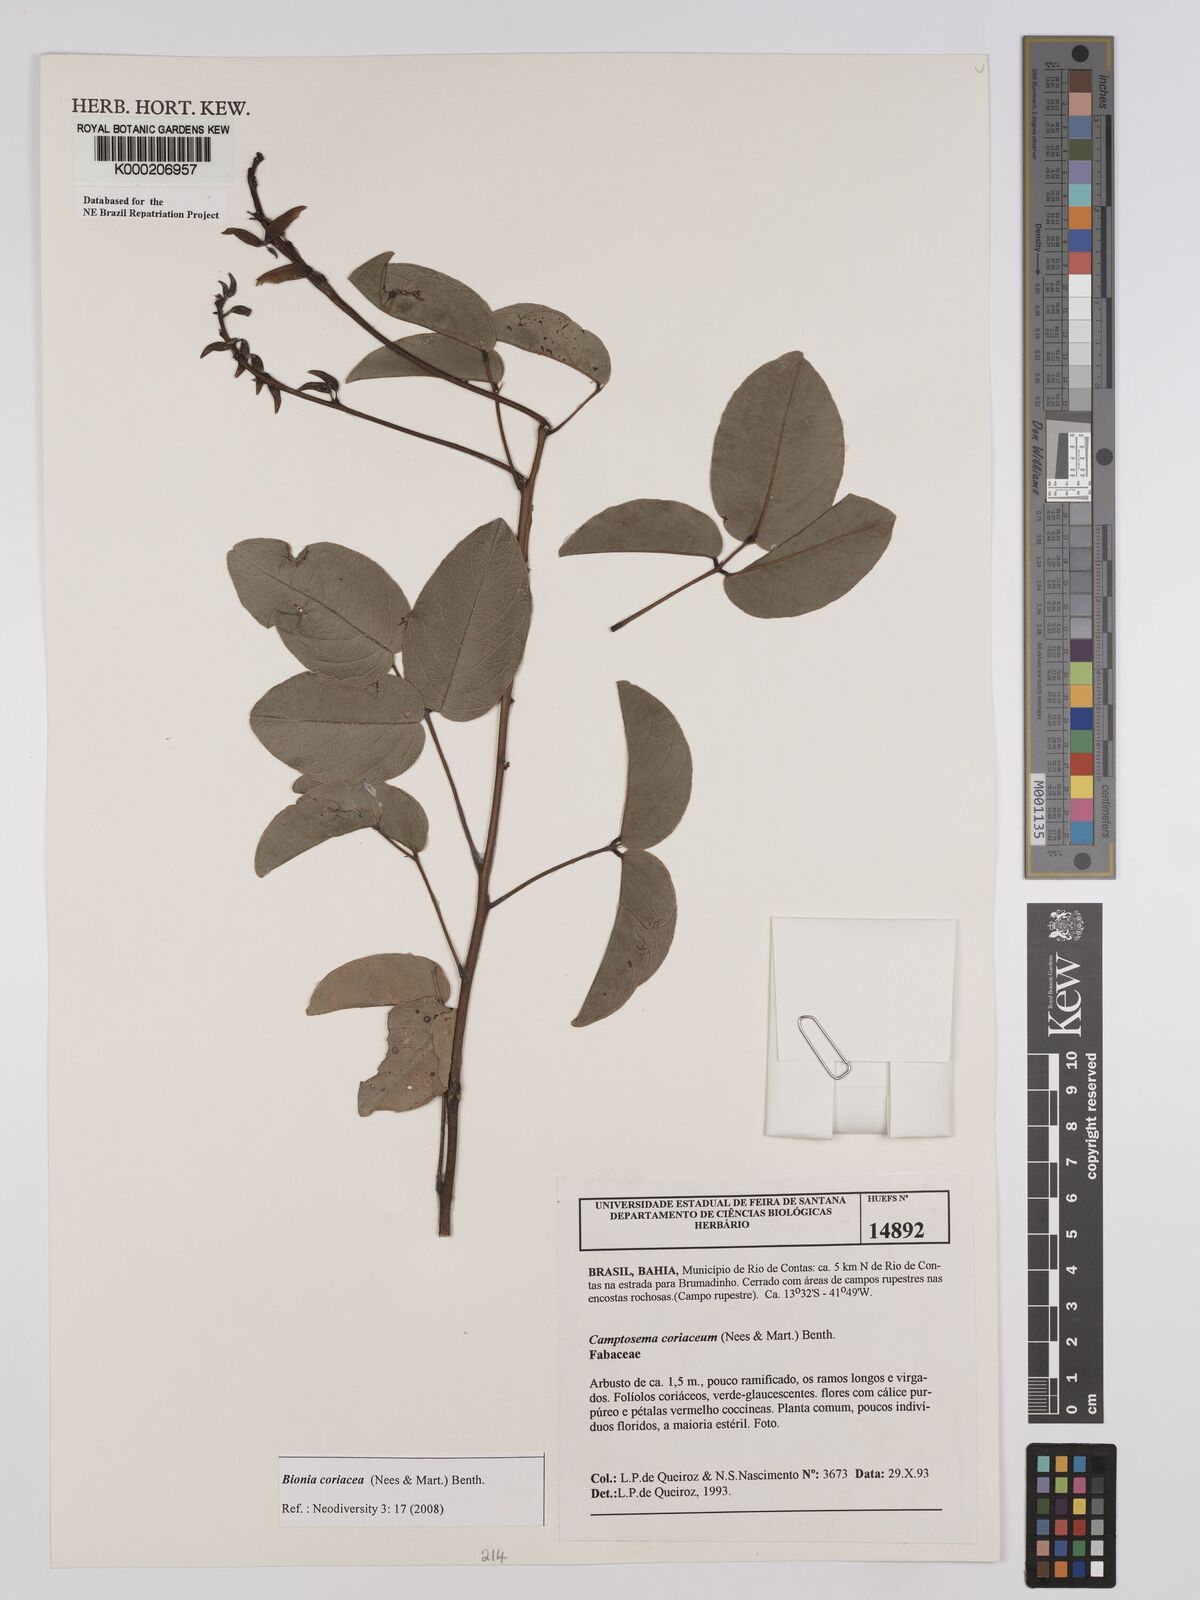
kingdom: Plantae
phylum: Tracheophyta
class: Magnoliopsida
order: Fabales
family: Fabaceae
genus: Camptosema
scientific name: Camptosema coriaceum
